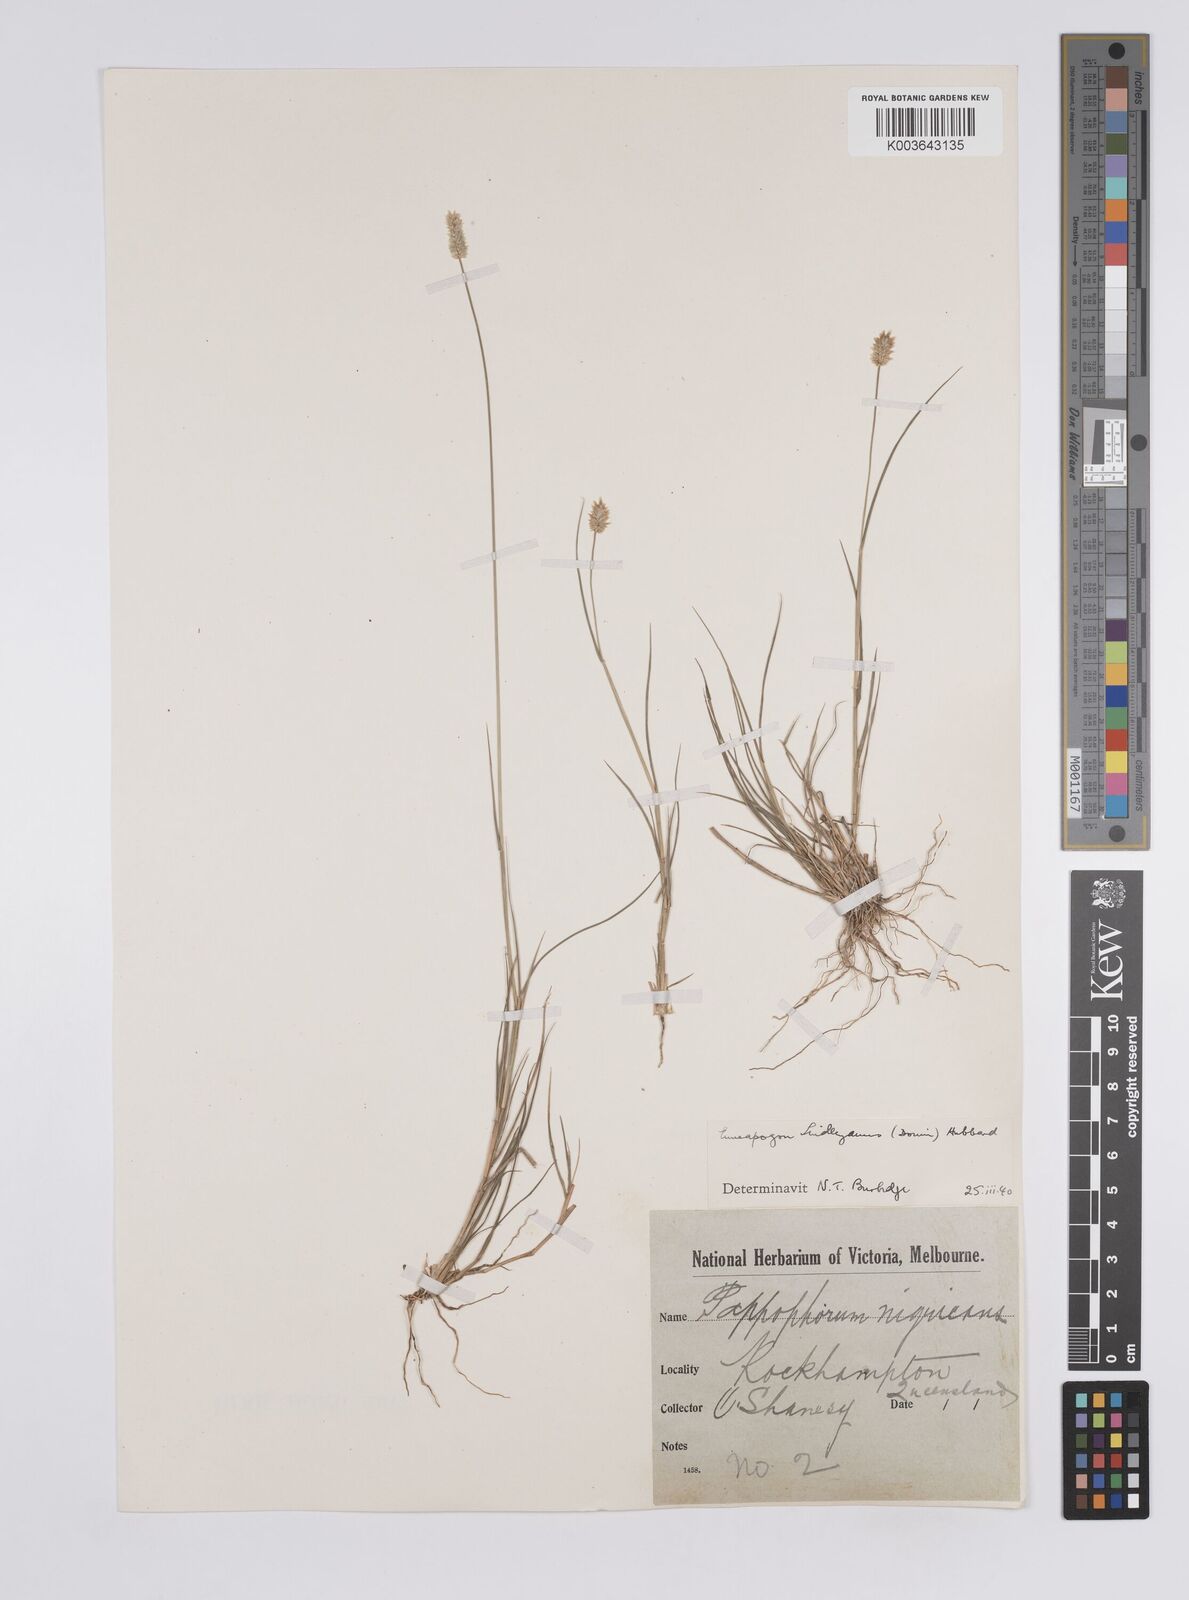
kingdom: Plantae
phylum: Tracheophyta
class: Liliopsida
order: Poales
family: Poaceae
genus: Enneapogon
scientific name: Enneapogon lindleyanus
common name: Conetop nineawn
